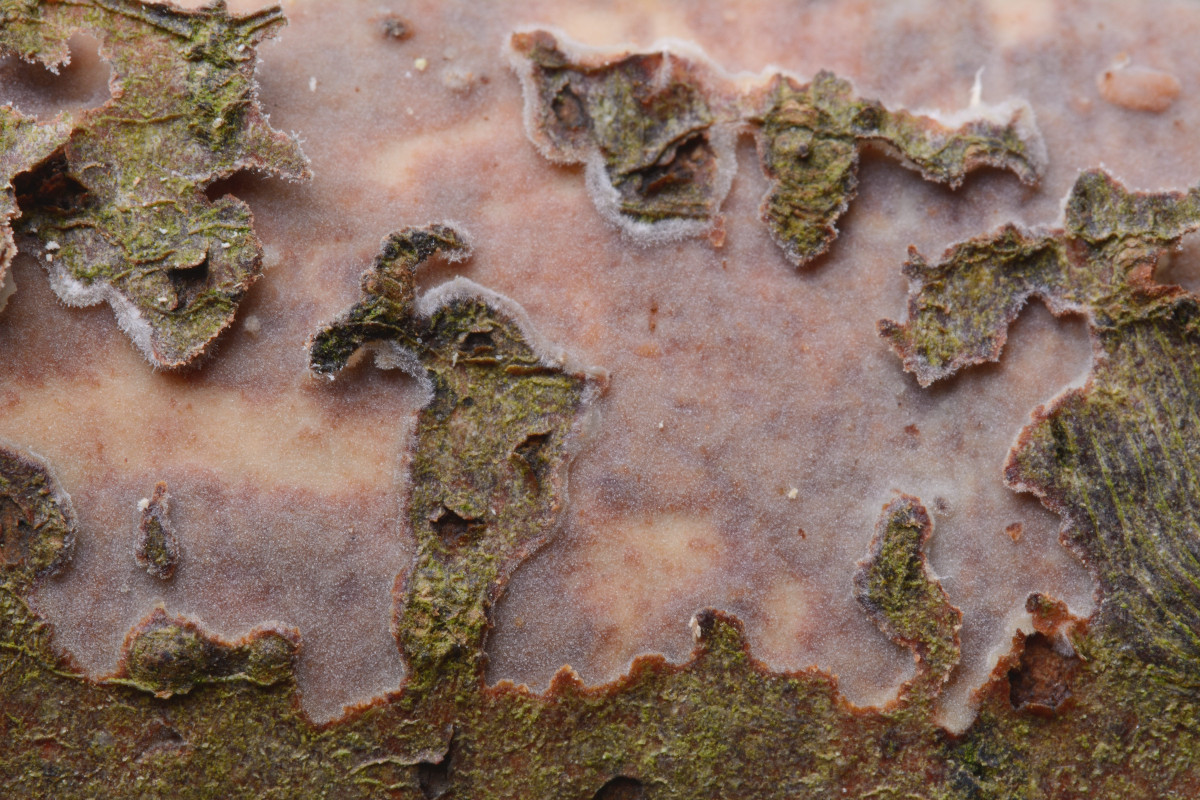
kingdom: Fungi
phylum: Basidiomycota
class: Agaricomycetes
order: Corticiales
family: Vuilleminiaceae
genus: Vuilleminia
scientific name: Vuilleminia comedens
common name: almindelig barksprænger
